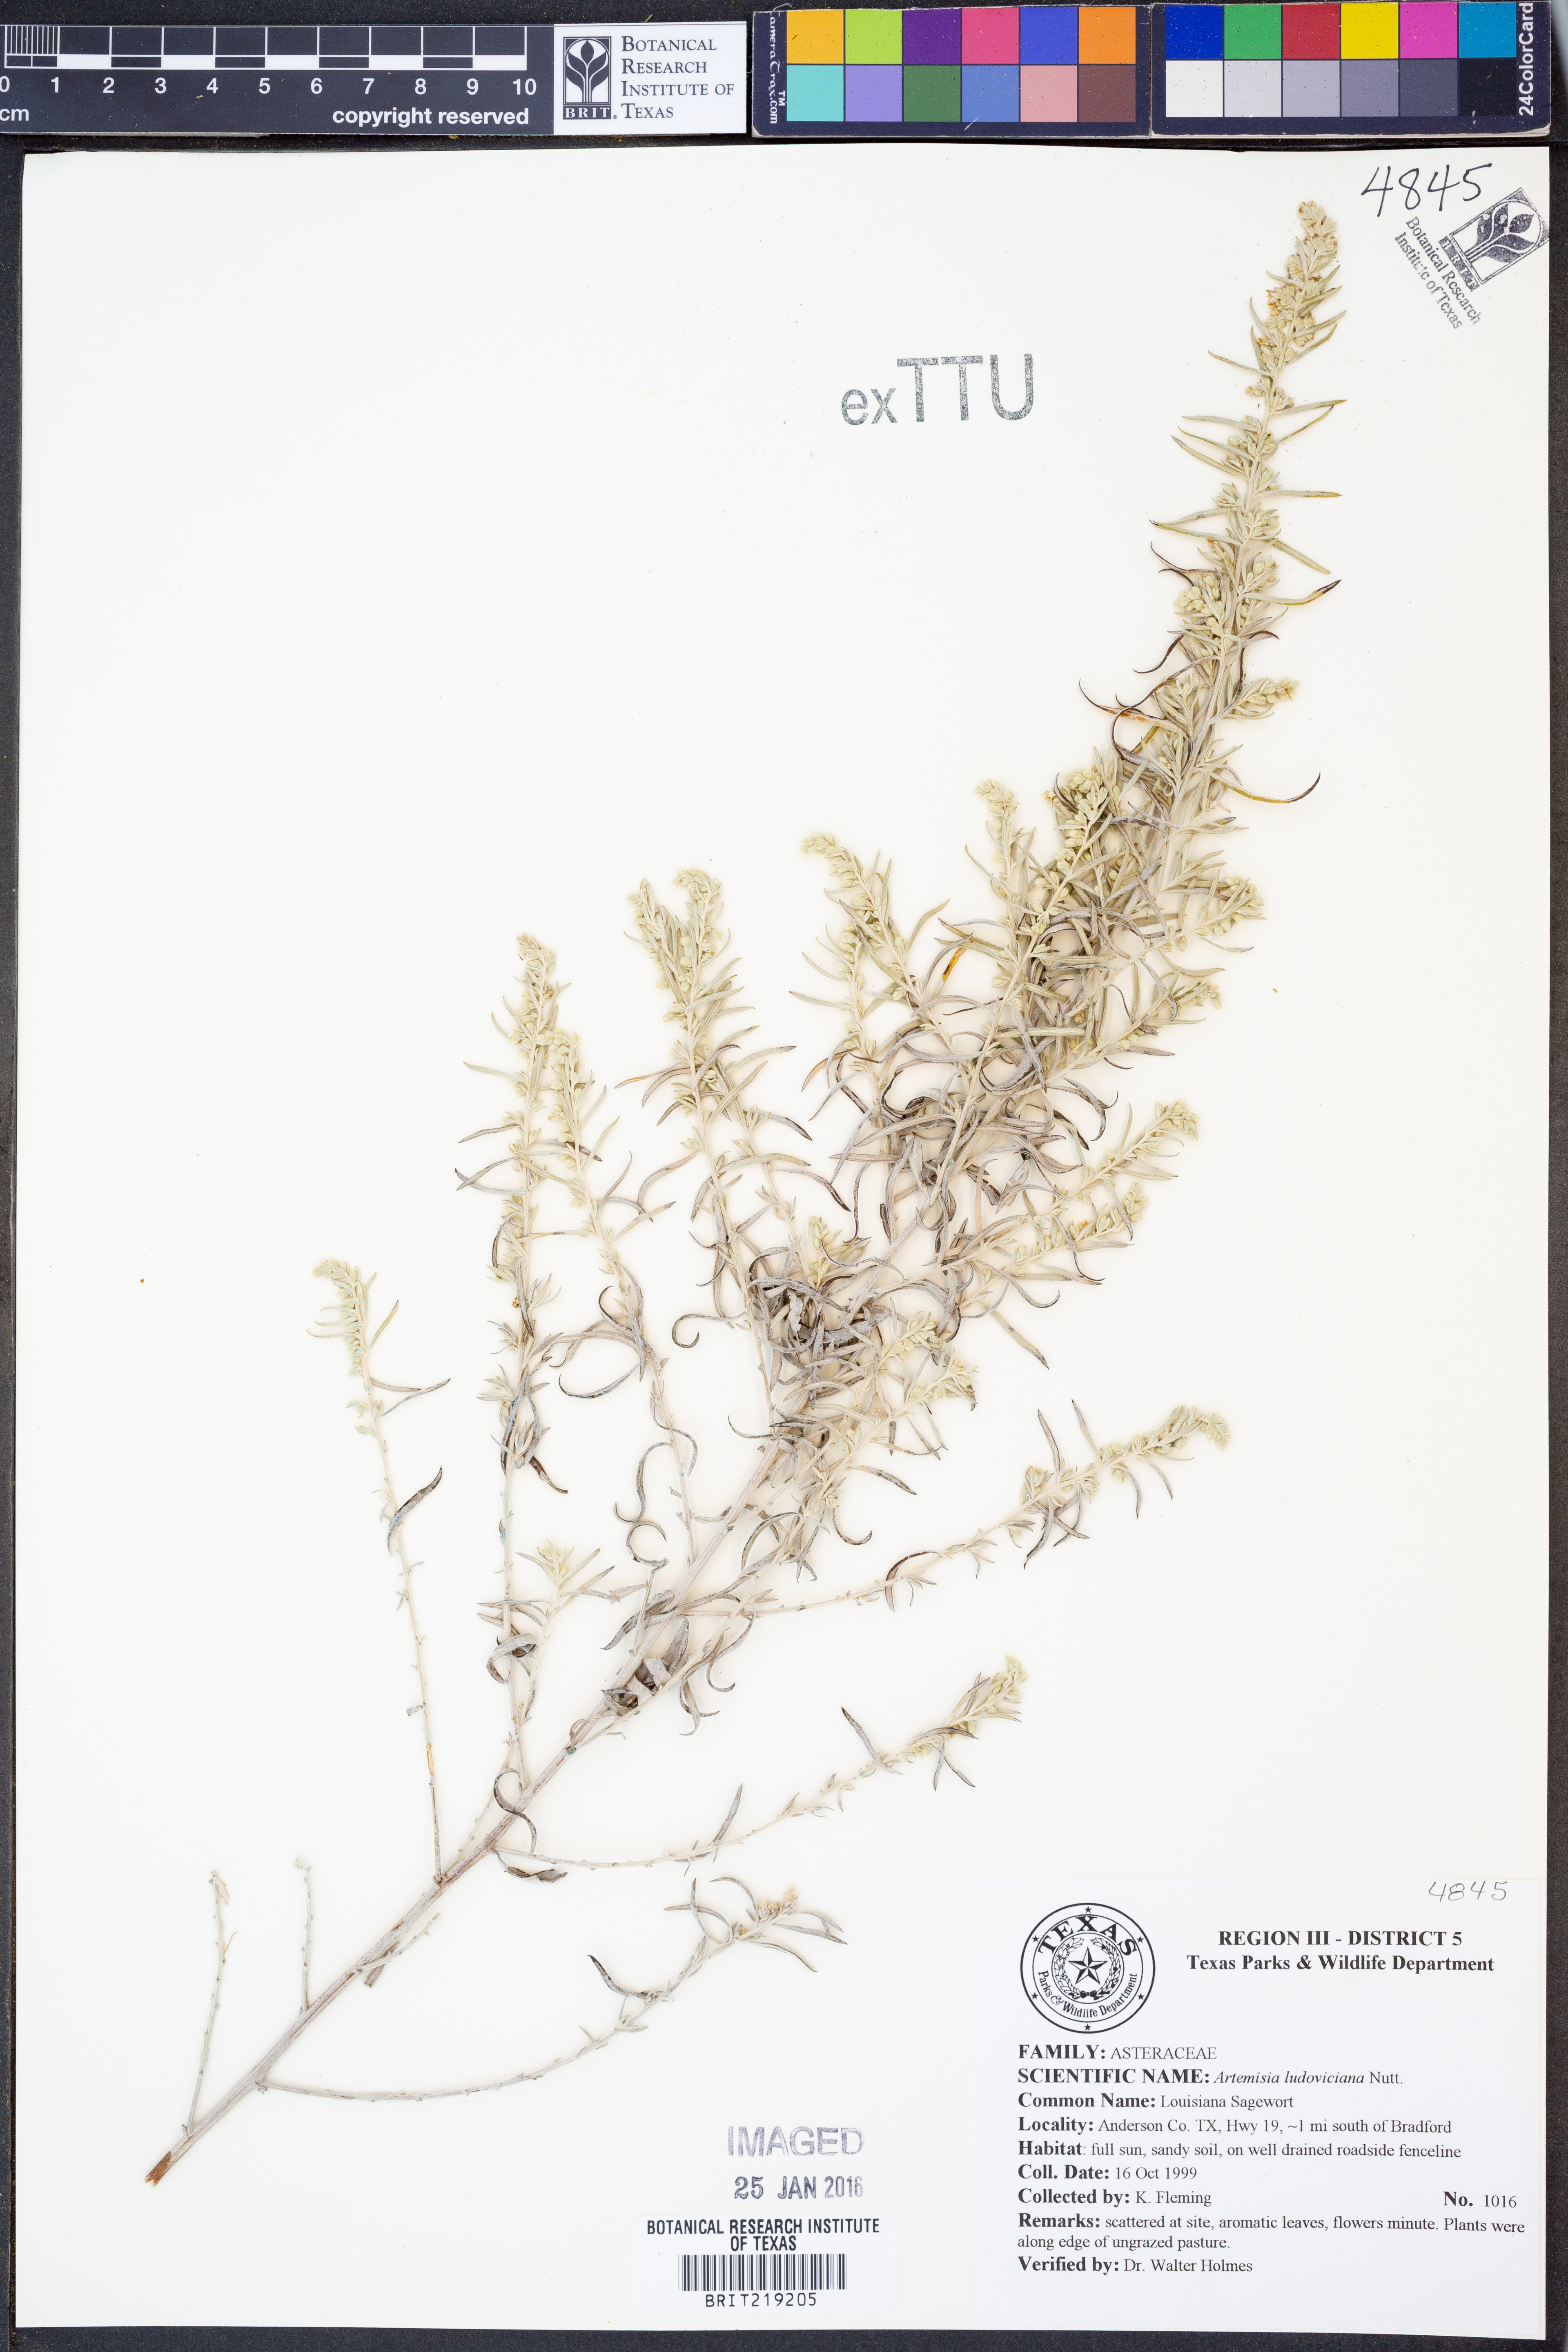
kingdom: Plantae
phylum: Tracheophyta
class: Magnoliopsida
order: Asterales
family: Asteraceae
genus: Artemisia
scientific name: Artemisia ludoviciana
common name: Western mugwort
